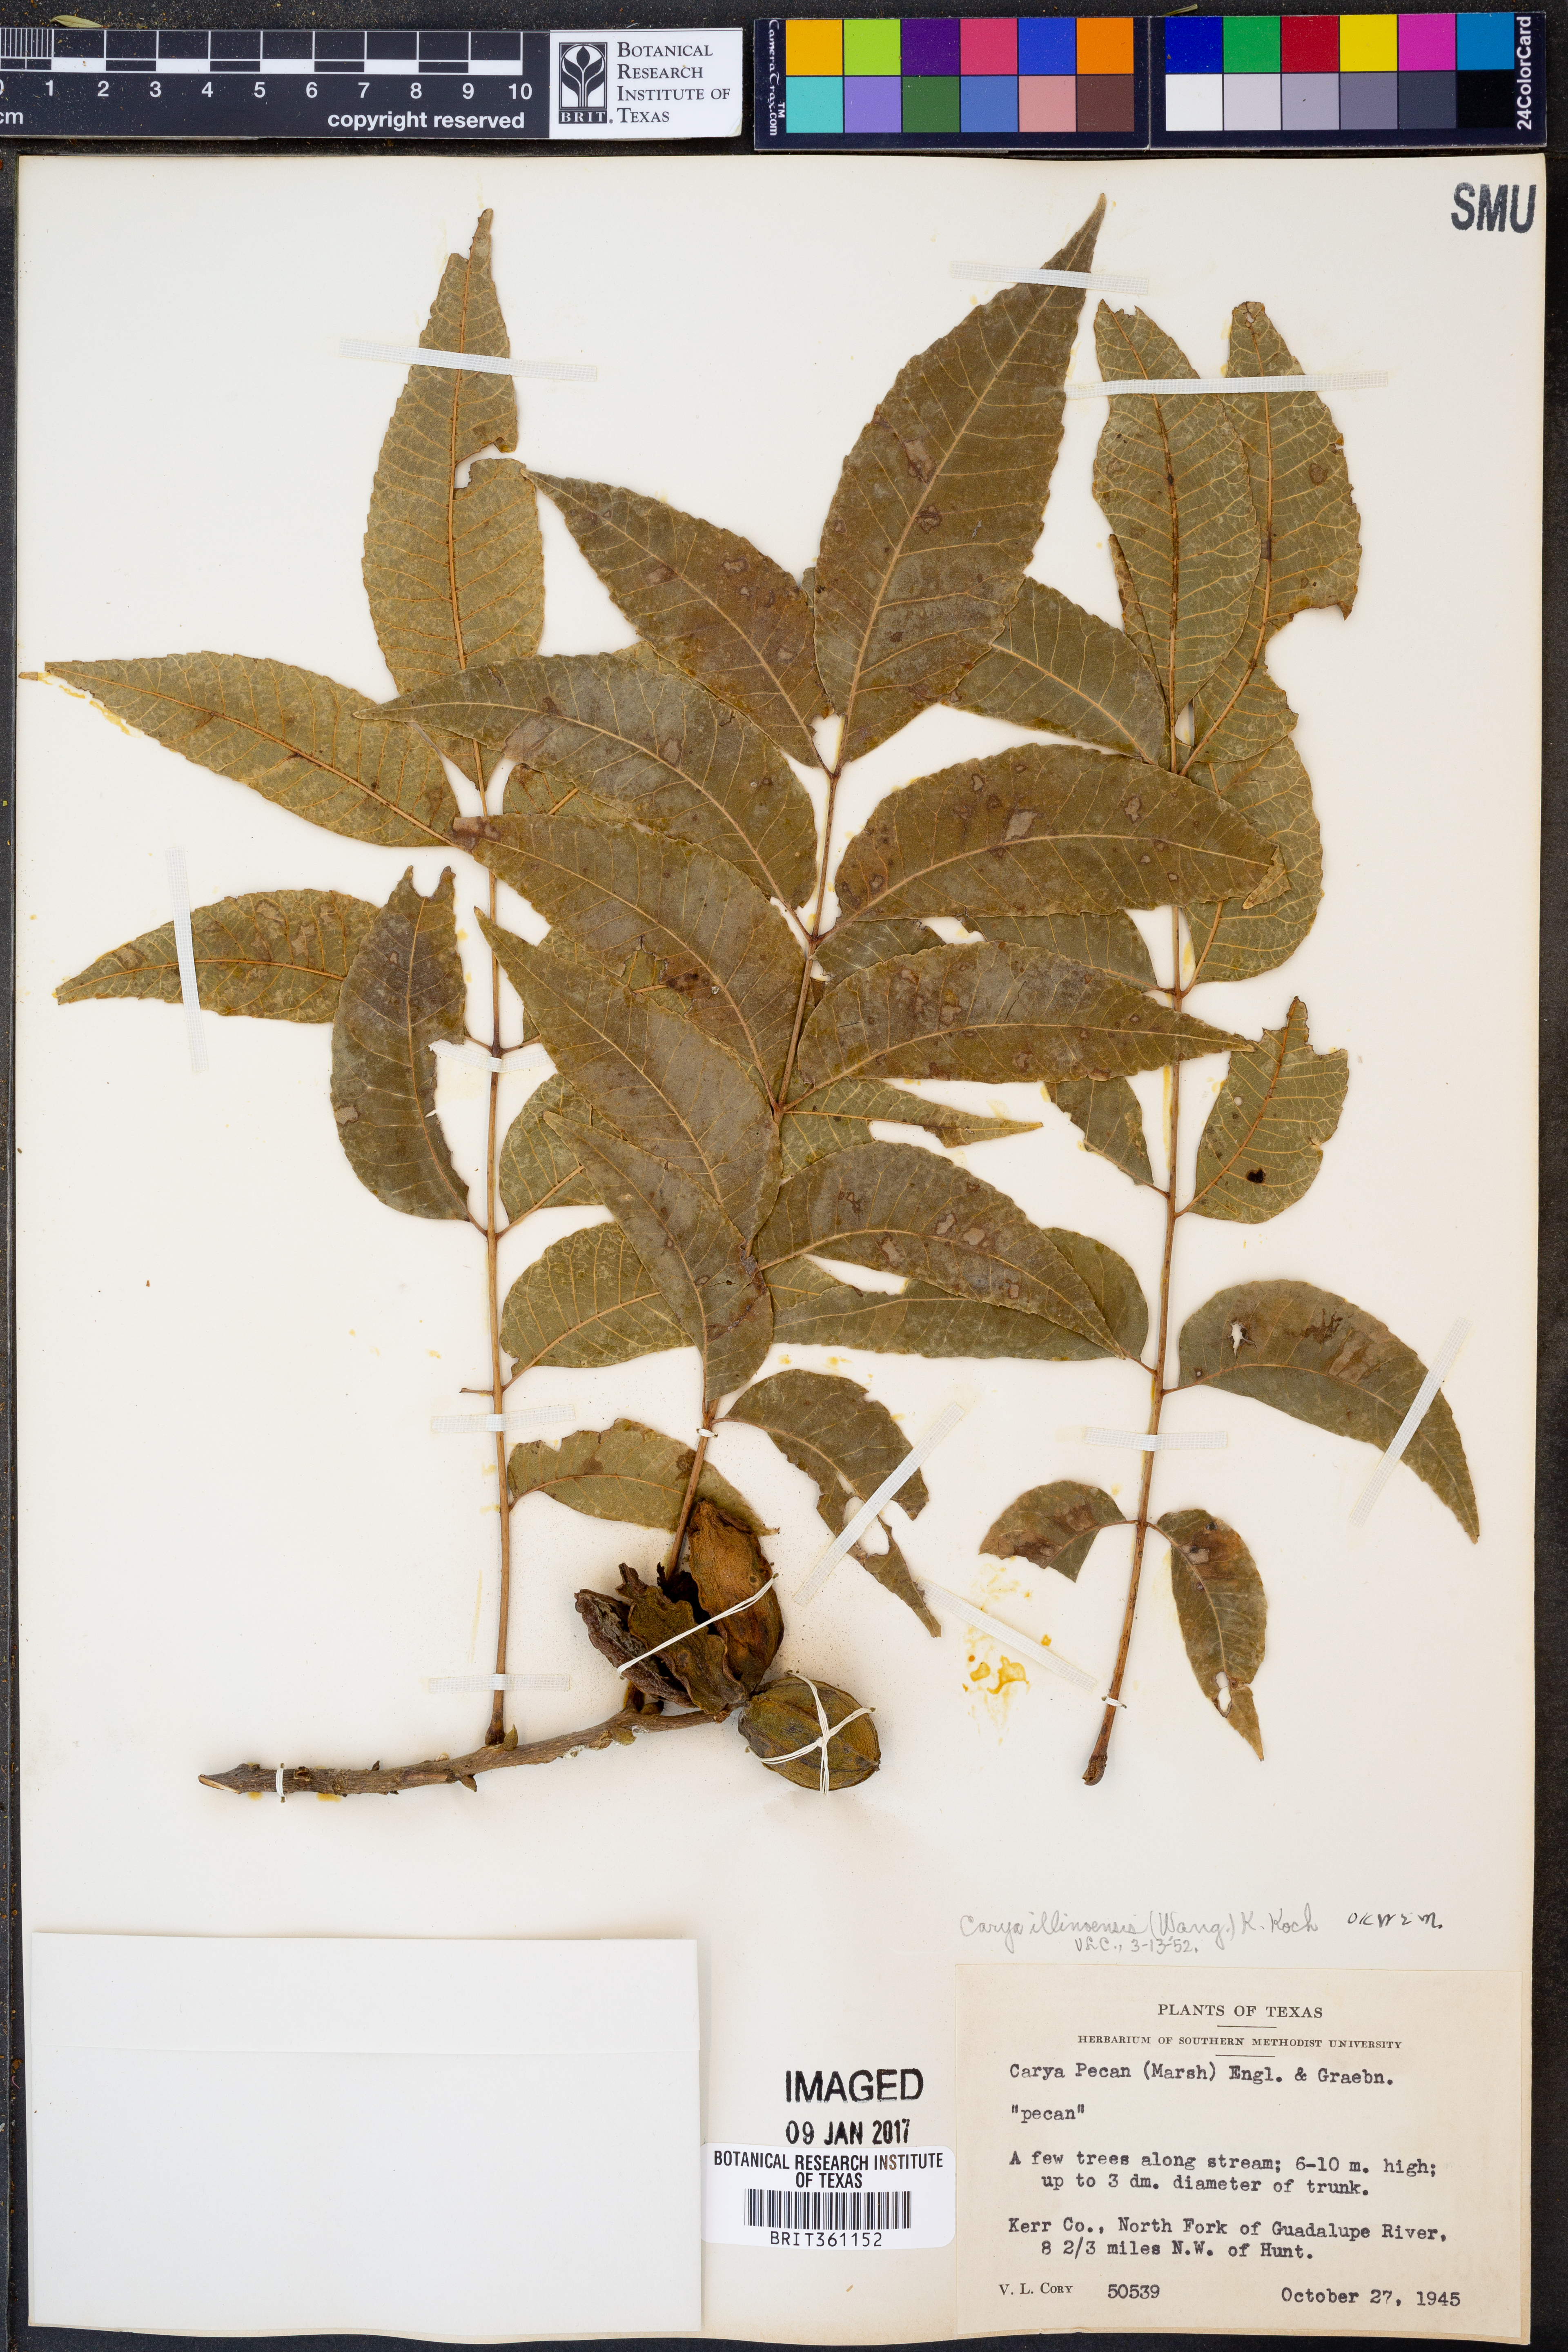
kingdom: Plantae
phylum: Tracheophyta
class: Magnoliopsida
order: Fagales
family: Juglandaceae
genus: Carya
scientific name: Carya illinoinensis
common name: Pecan
